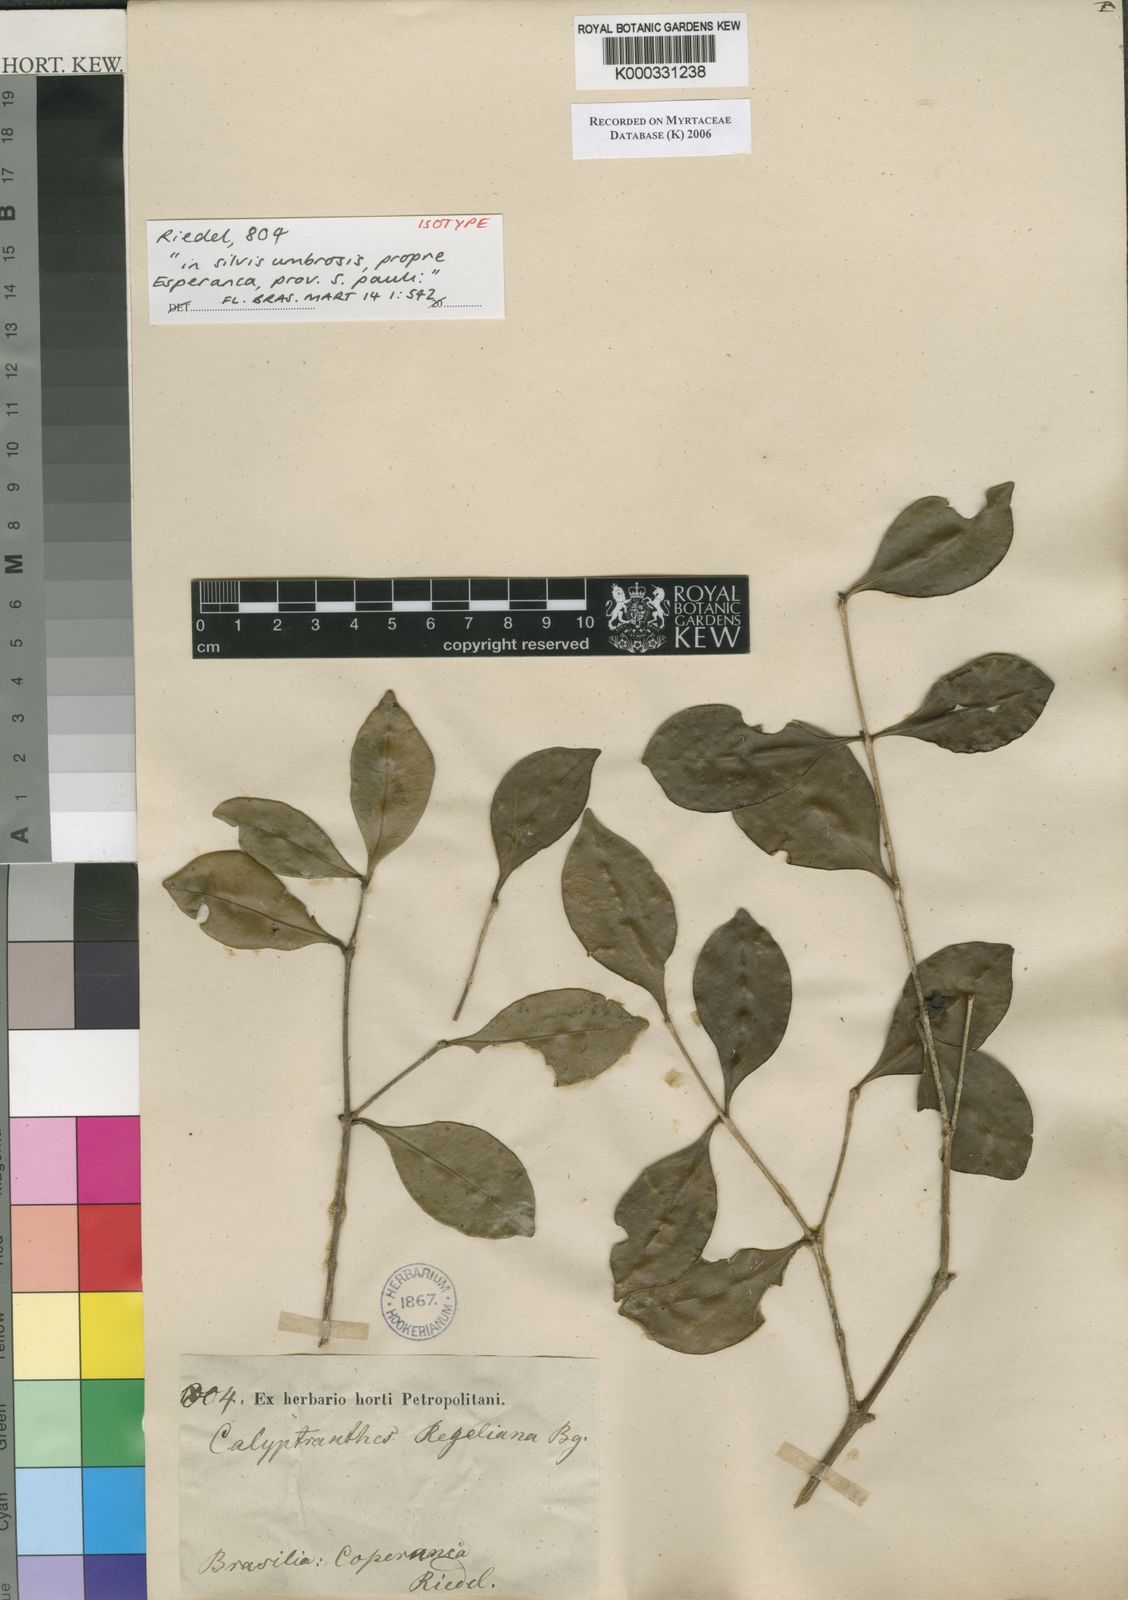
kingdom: Plantae
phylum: Tracheophyta
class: Magnoliopsida
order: Myrtales
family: Myrtaceae
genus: Neomitranthes
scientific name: Neomitranthes regeliana
